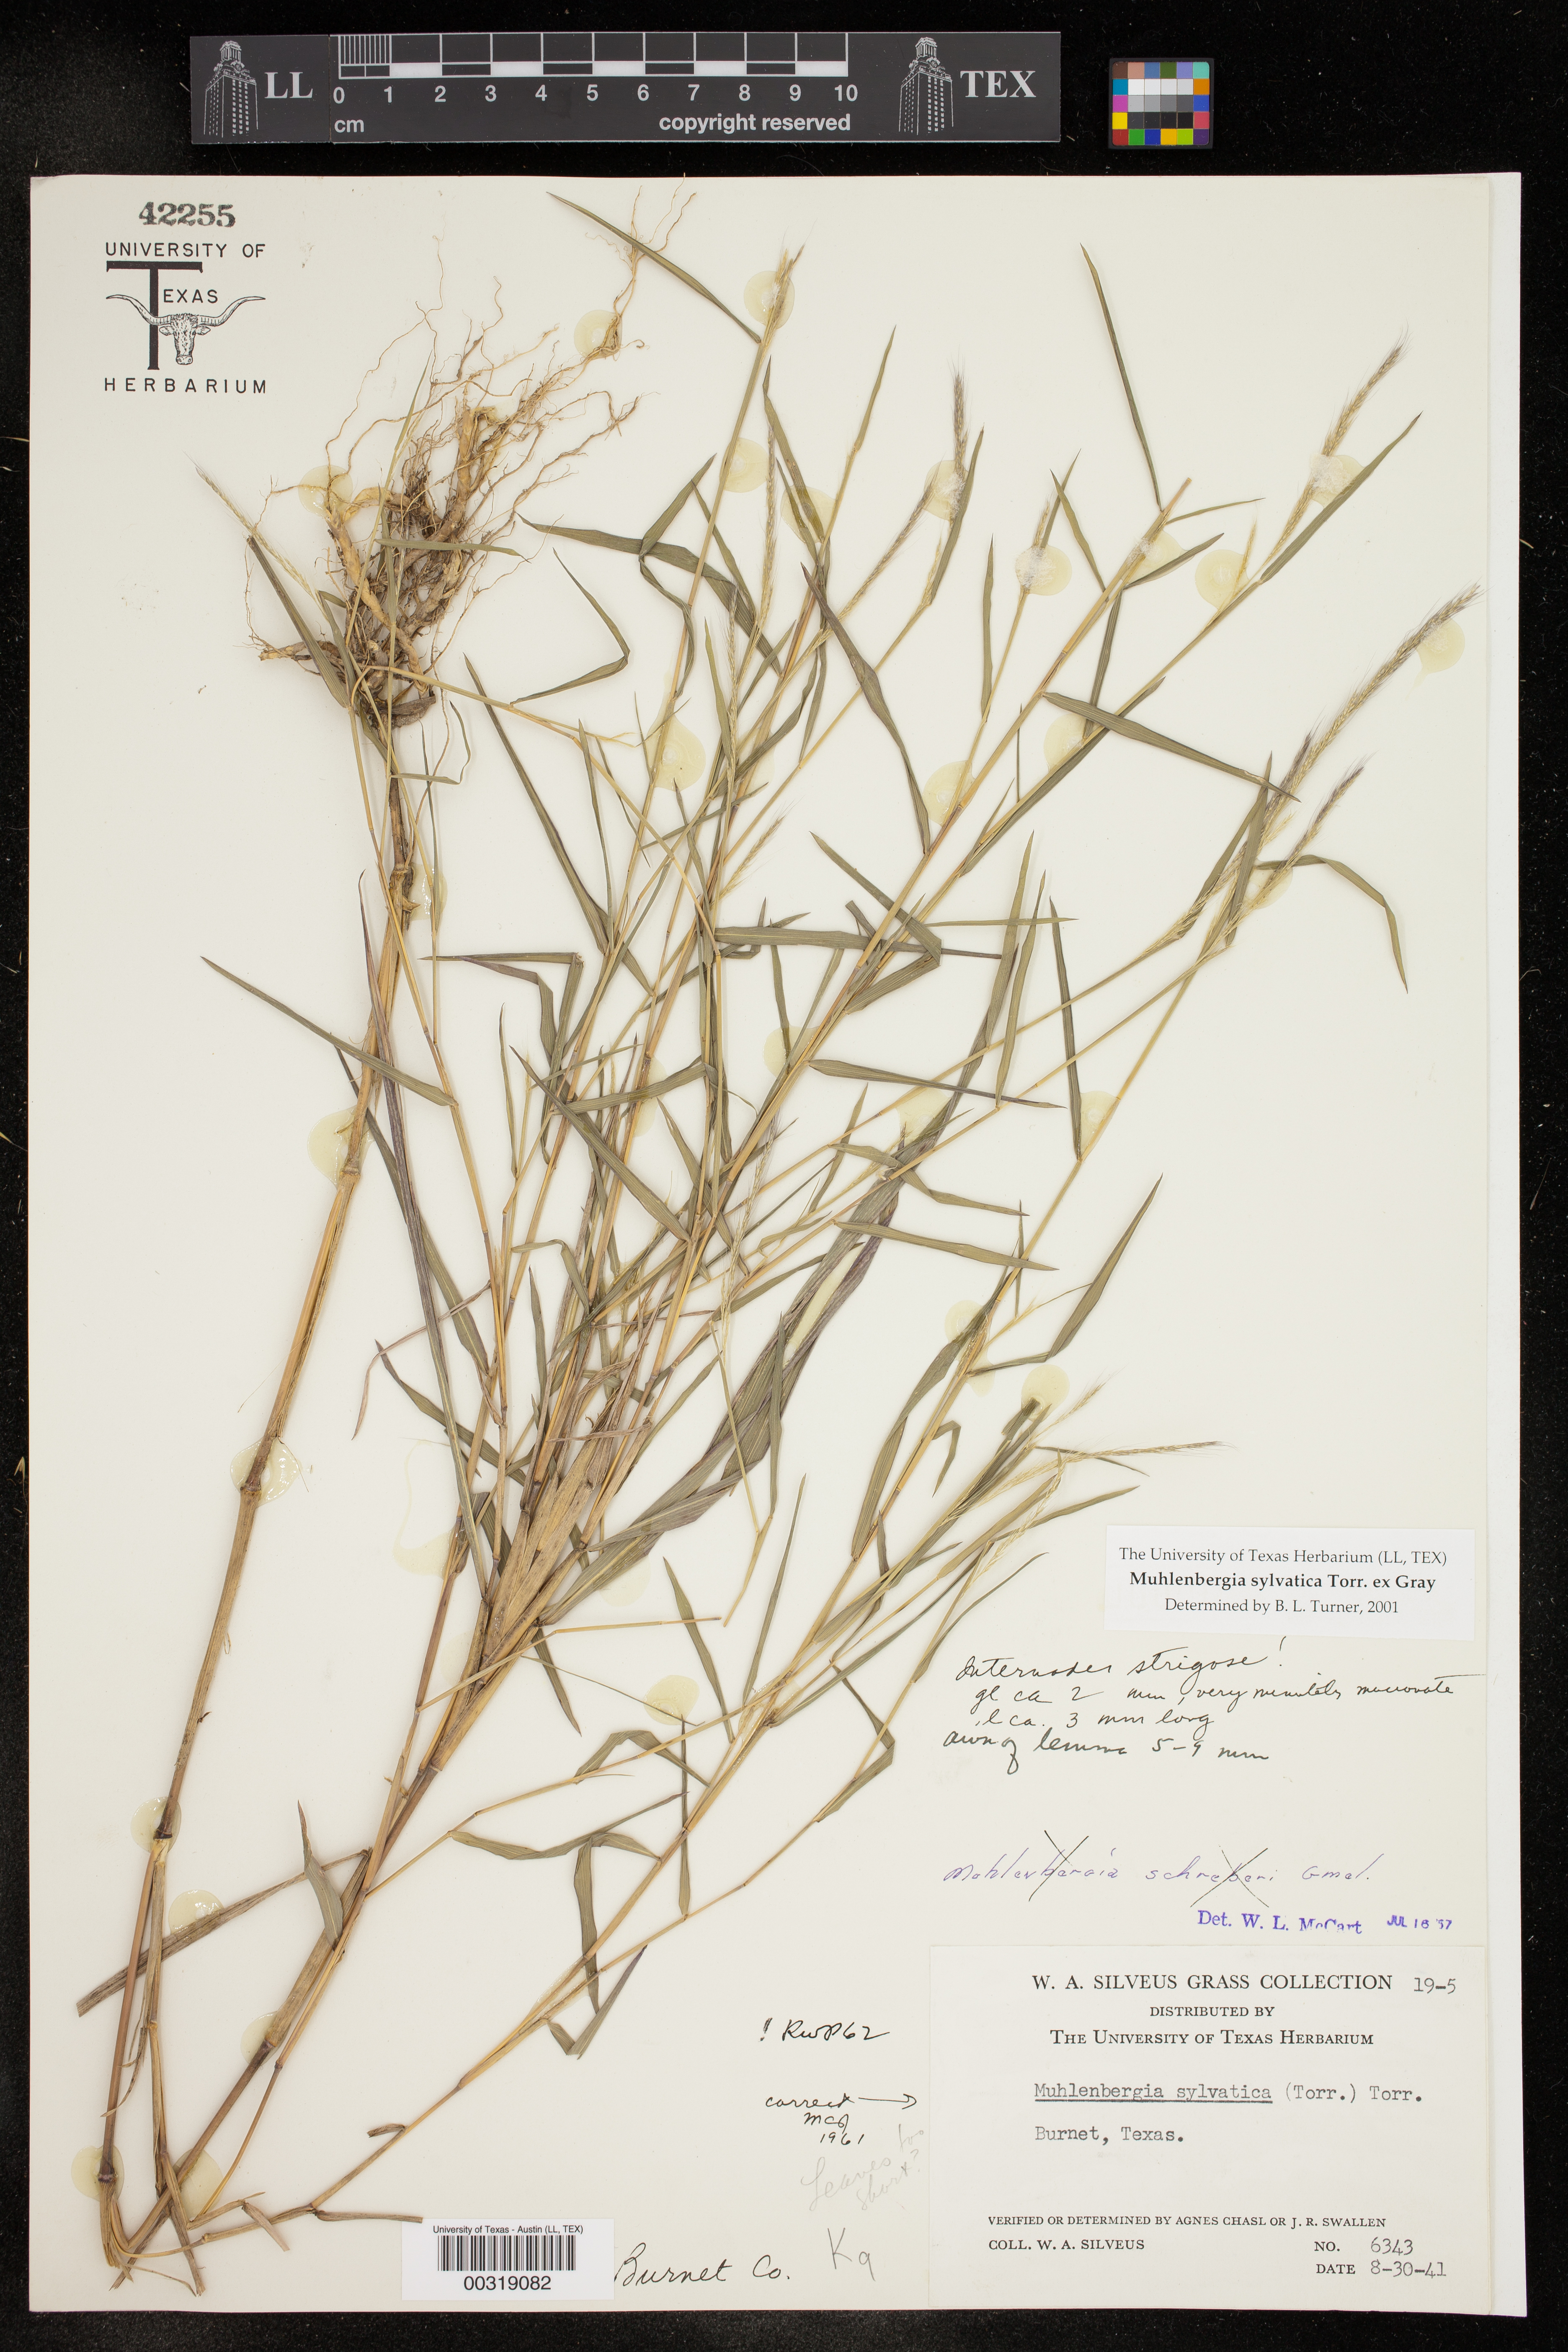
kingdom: Plantae
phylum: Tracheophyta
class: Liliopsida
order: Poales
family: Poaceae
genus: Muhlenbergia
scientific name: Muhlenbergia sylvatica
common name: Woodland muhly
